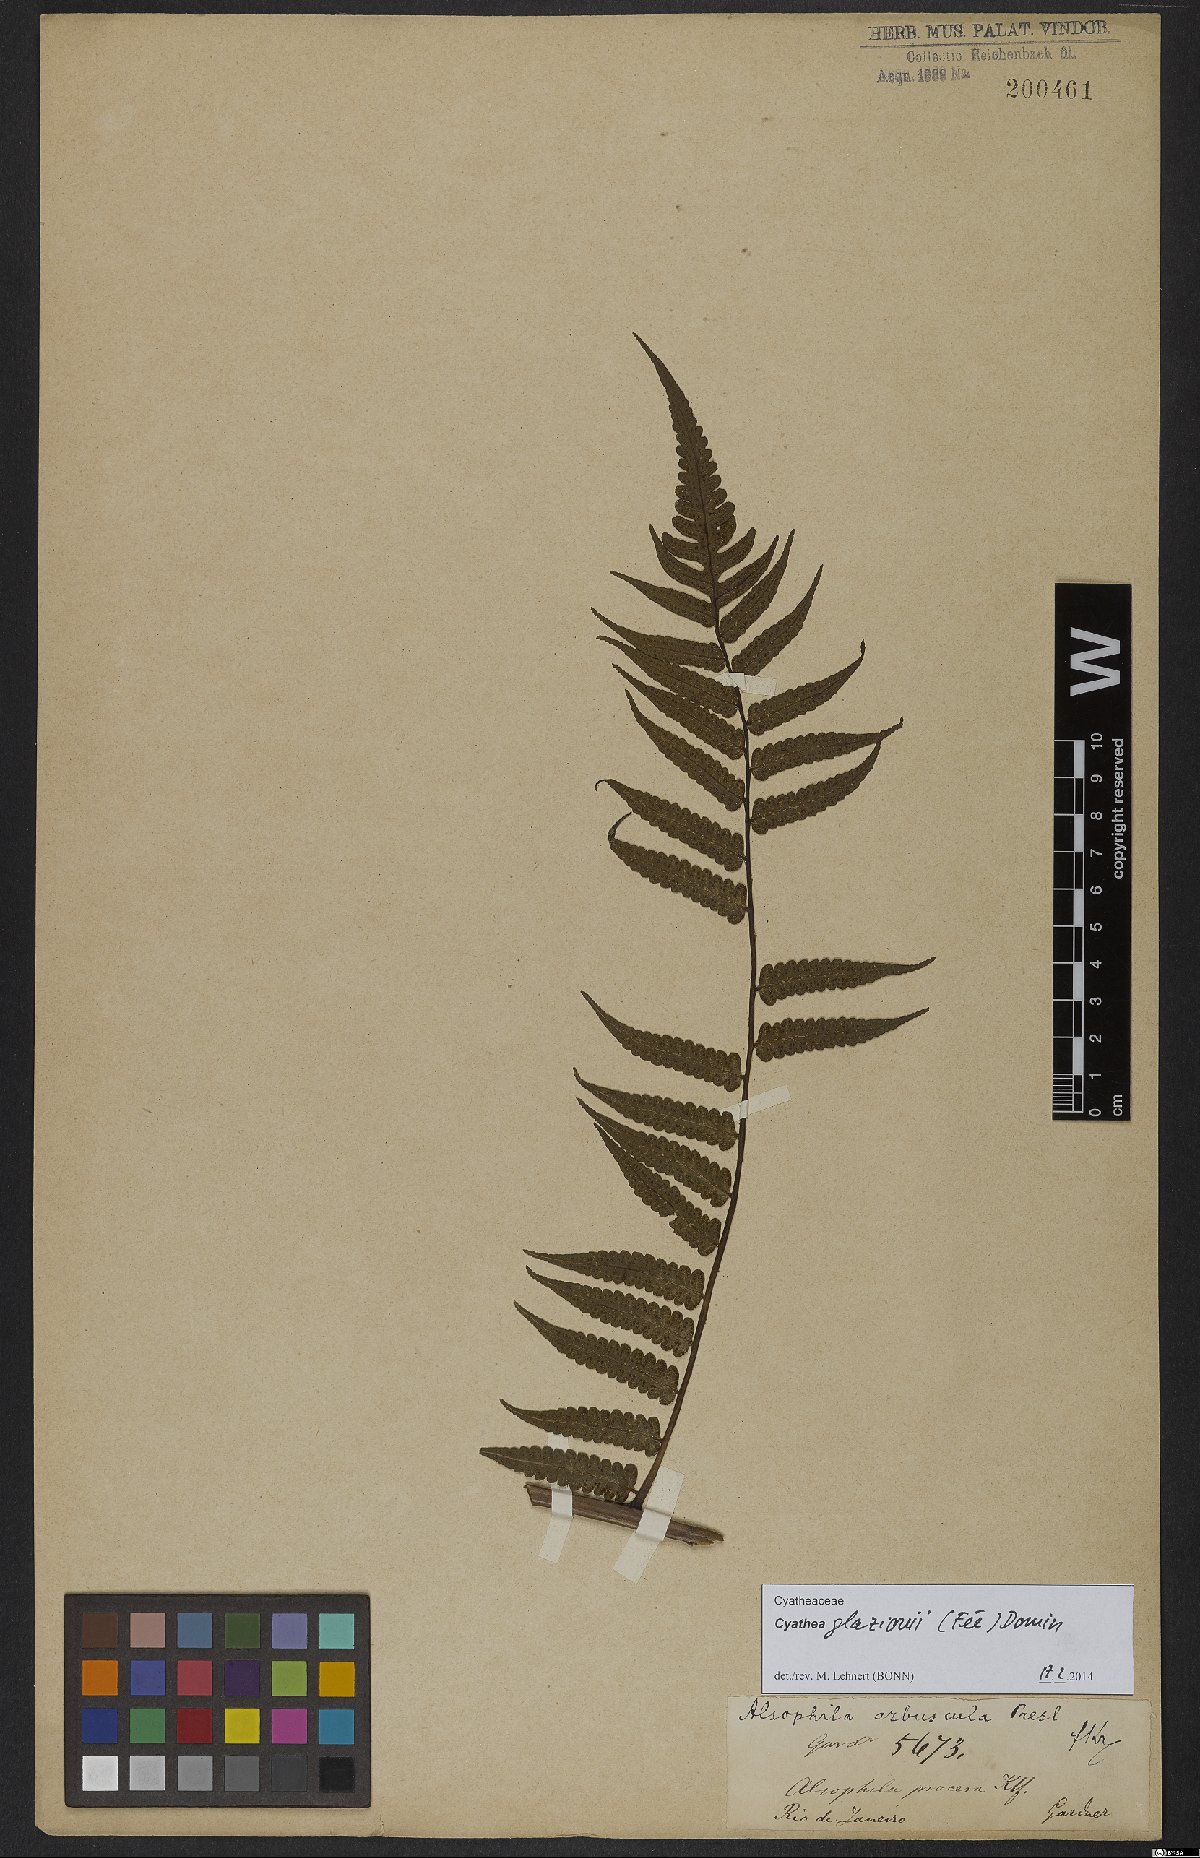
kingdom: Plantae
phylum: Tracheophyta
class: Polypodiopsida
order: Cyatheales
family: Cyatheaceae
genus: Cyathea
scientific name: Cyathea glaziovii
